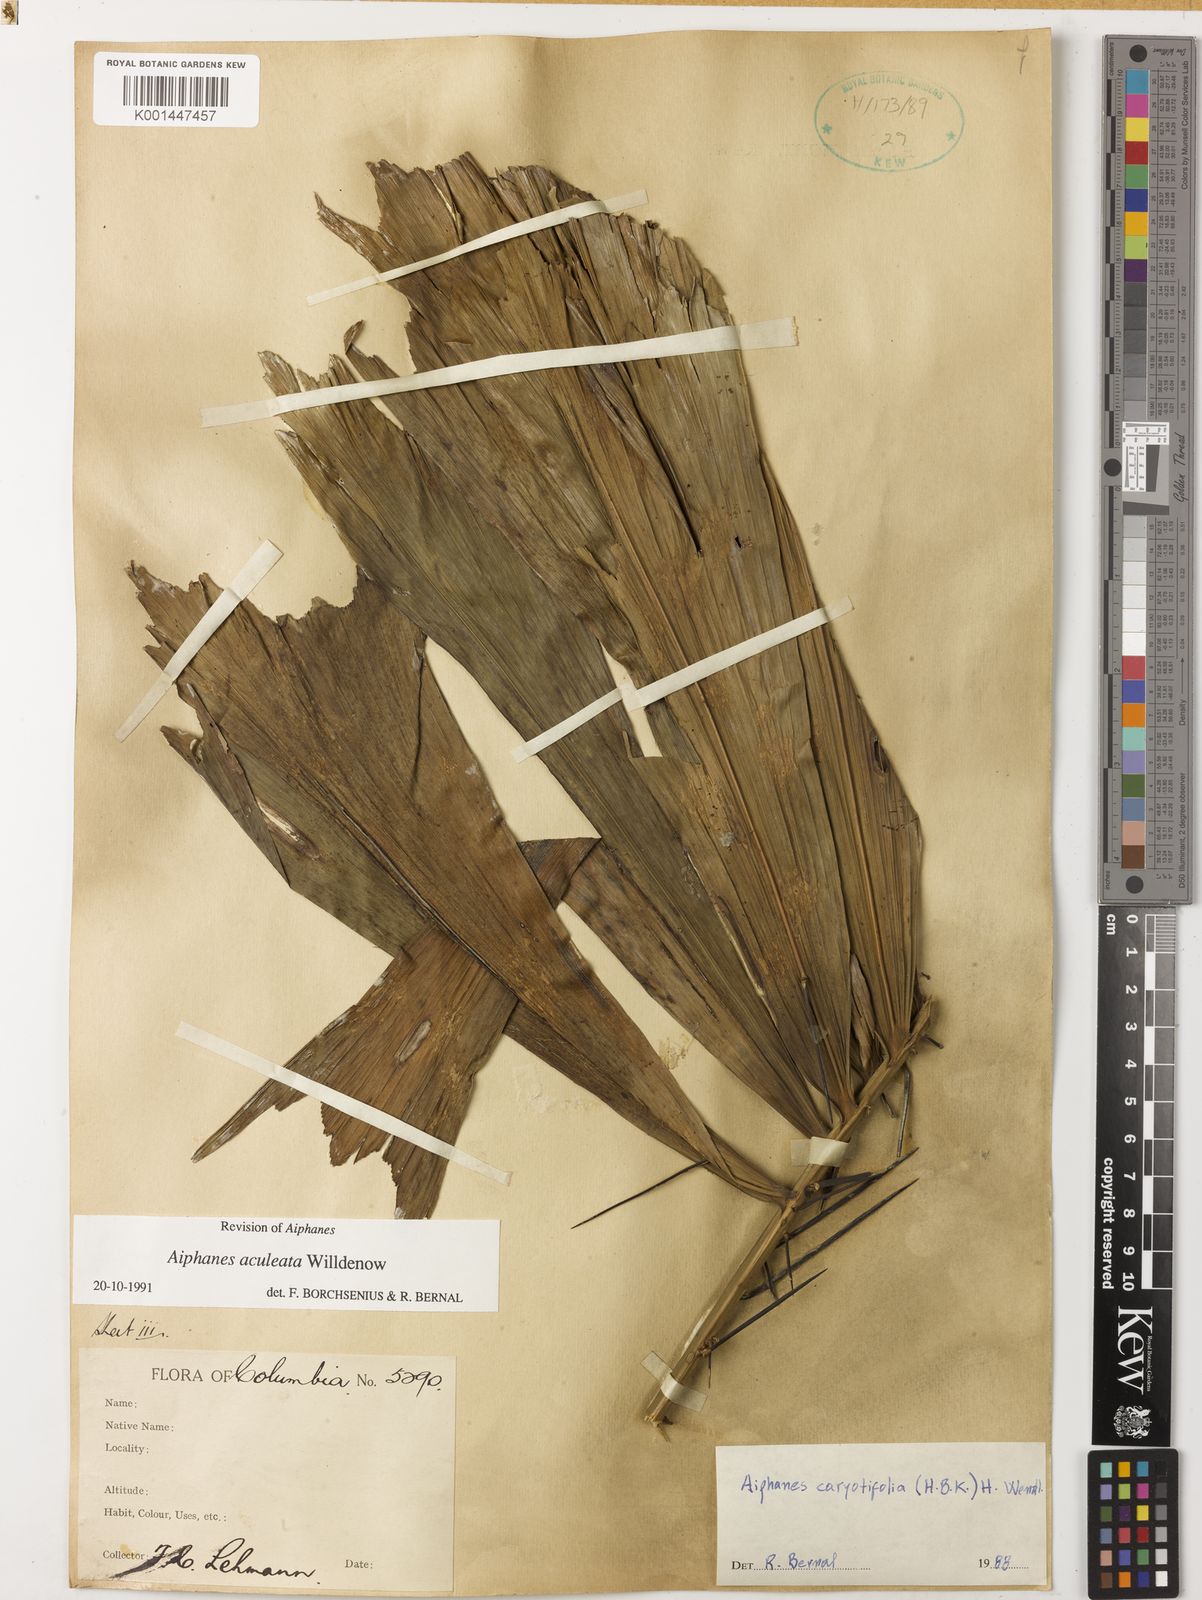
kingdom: Plantae
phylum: Tracheophyta
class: Liliopsida
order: Arecales
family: Arecaceae
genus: Aiphanes
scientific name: Aiphanes horrida
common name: Ruffle palm
